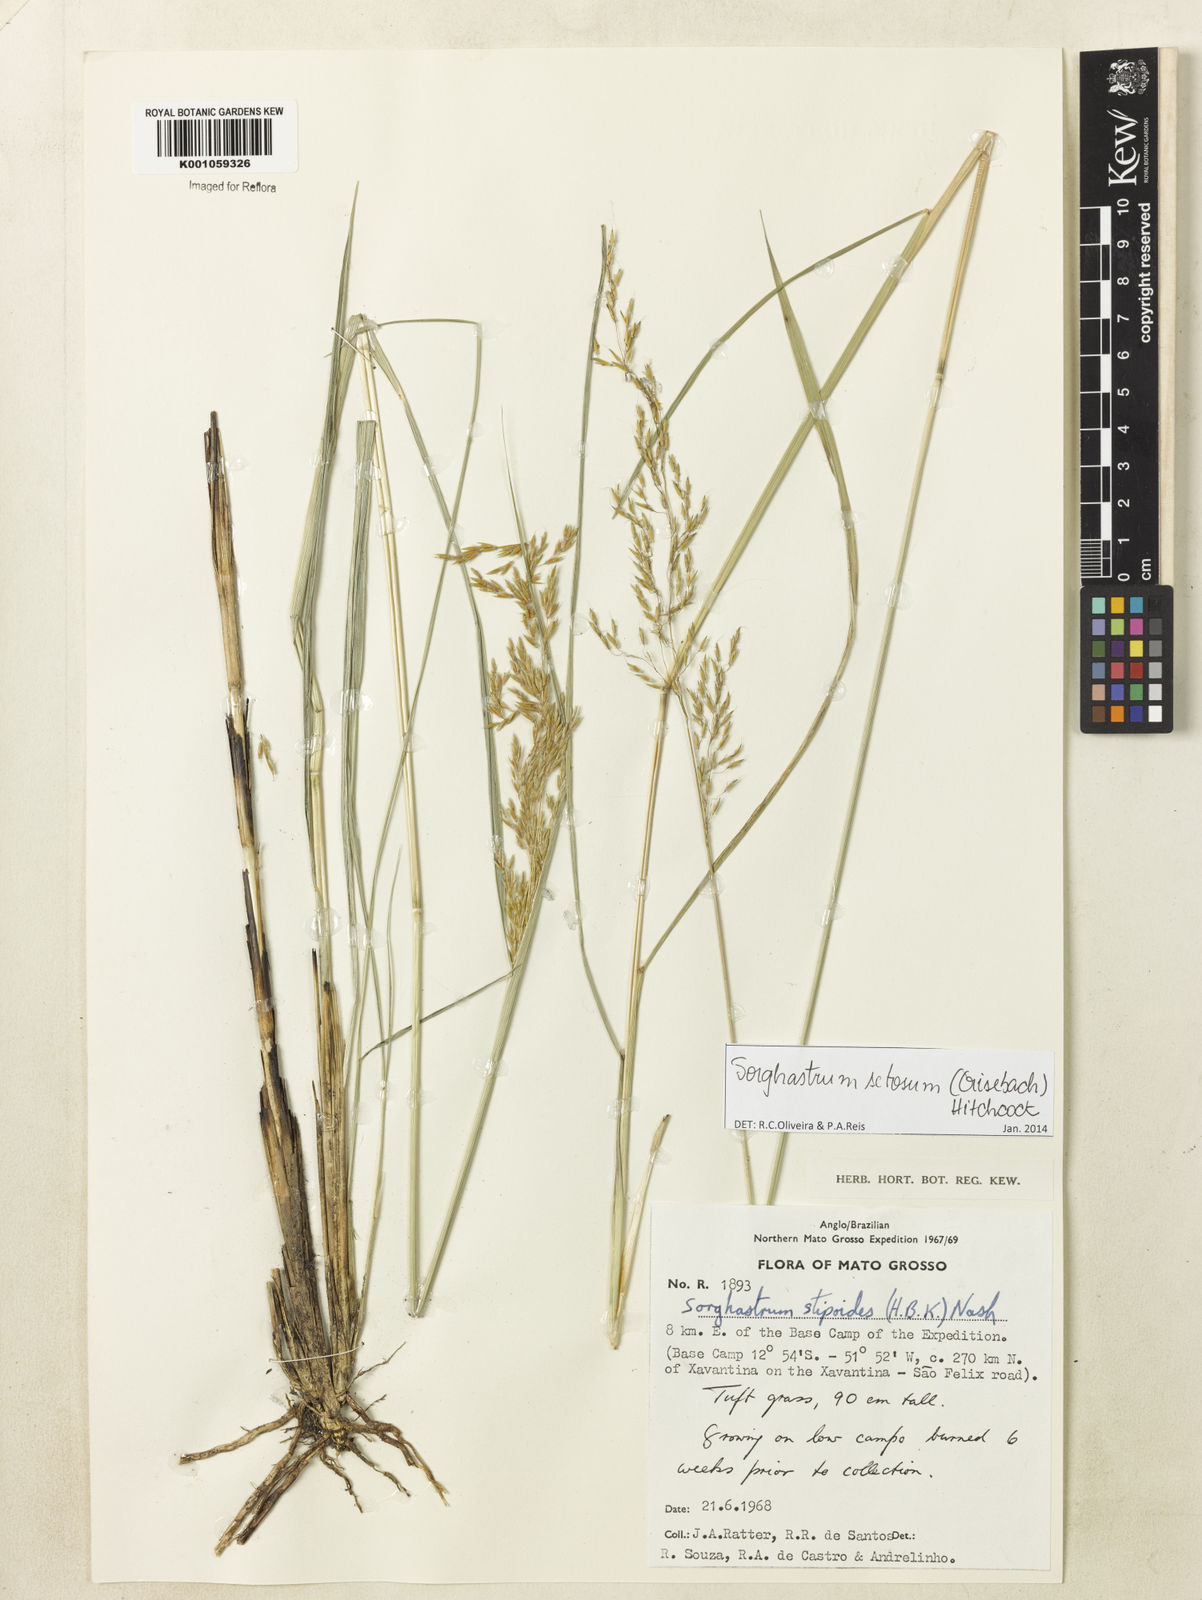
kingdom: Plantae
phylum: Tracheophyta
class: Liliopsida
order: Poales
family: Poaceae
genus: Sorghastrum
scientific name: Sorghastrum setosum
